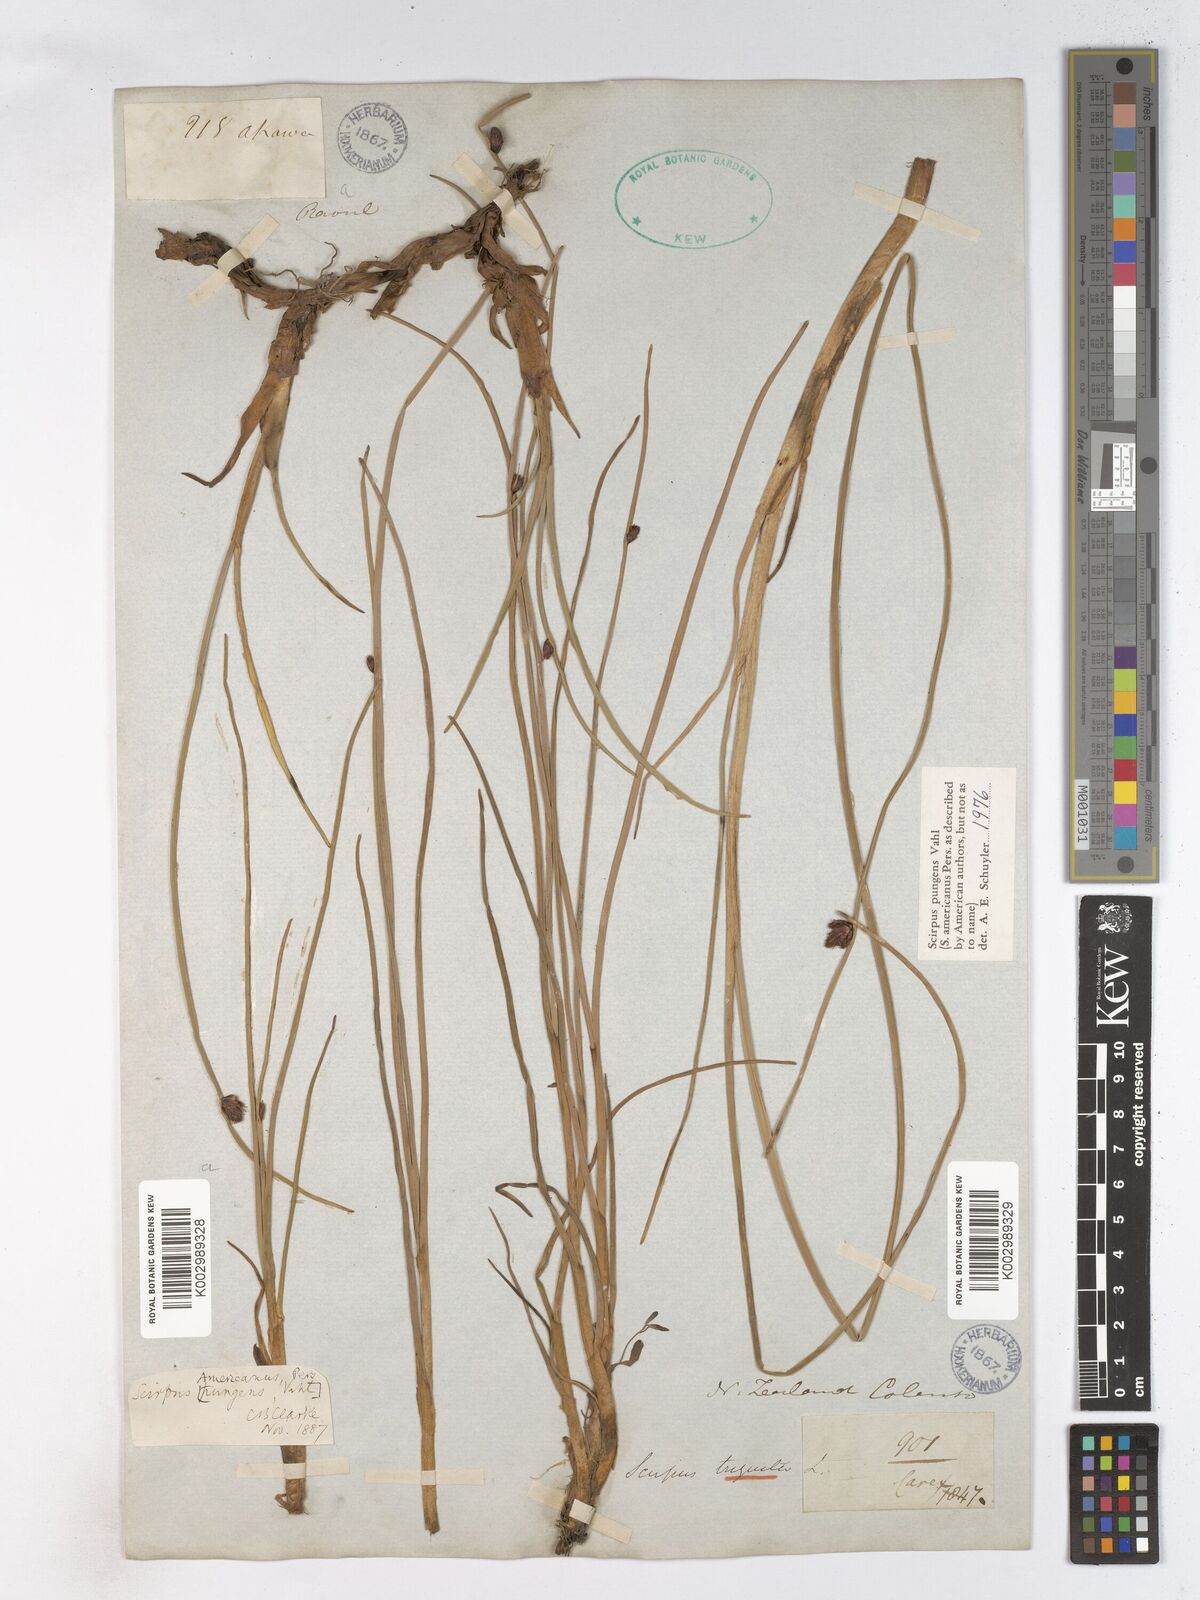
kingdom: Plantae
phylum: Tracheophyta
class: Liliopsida
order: Poales
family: Cyperaceae
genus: Schoenoplectus
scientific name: Schoenoplectus pungens
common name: Sharp club-rush
